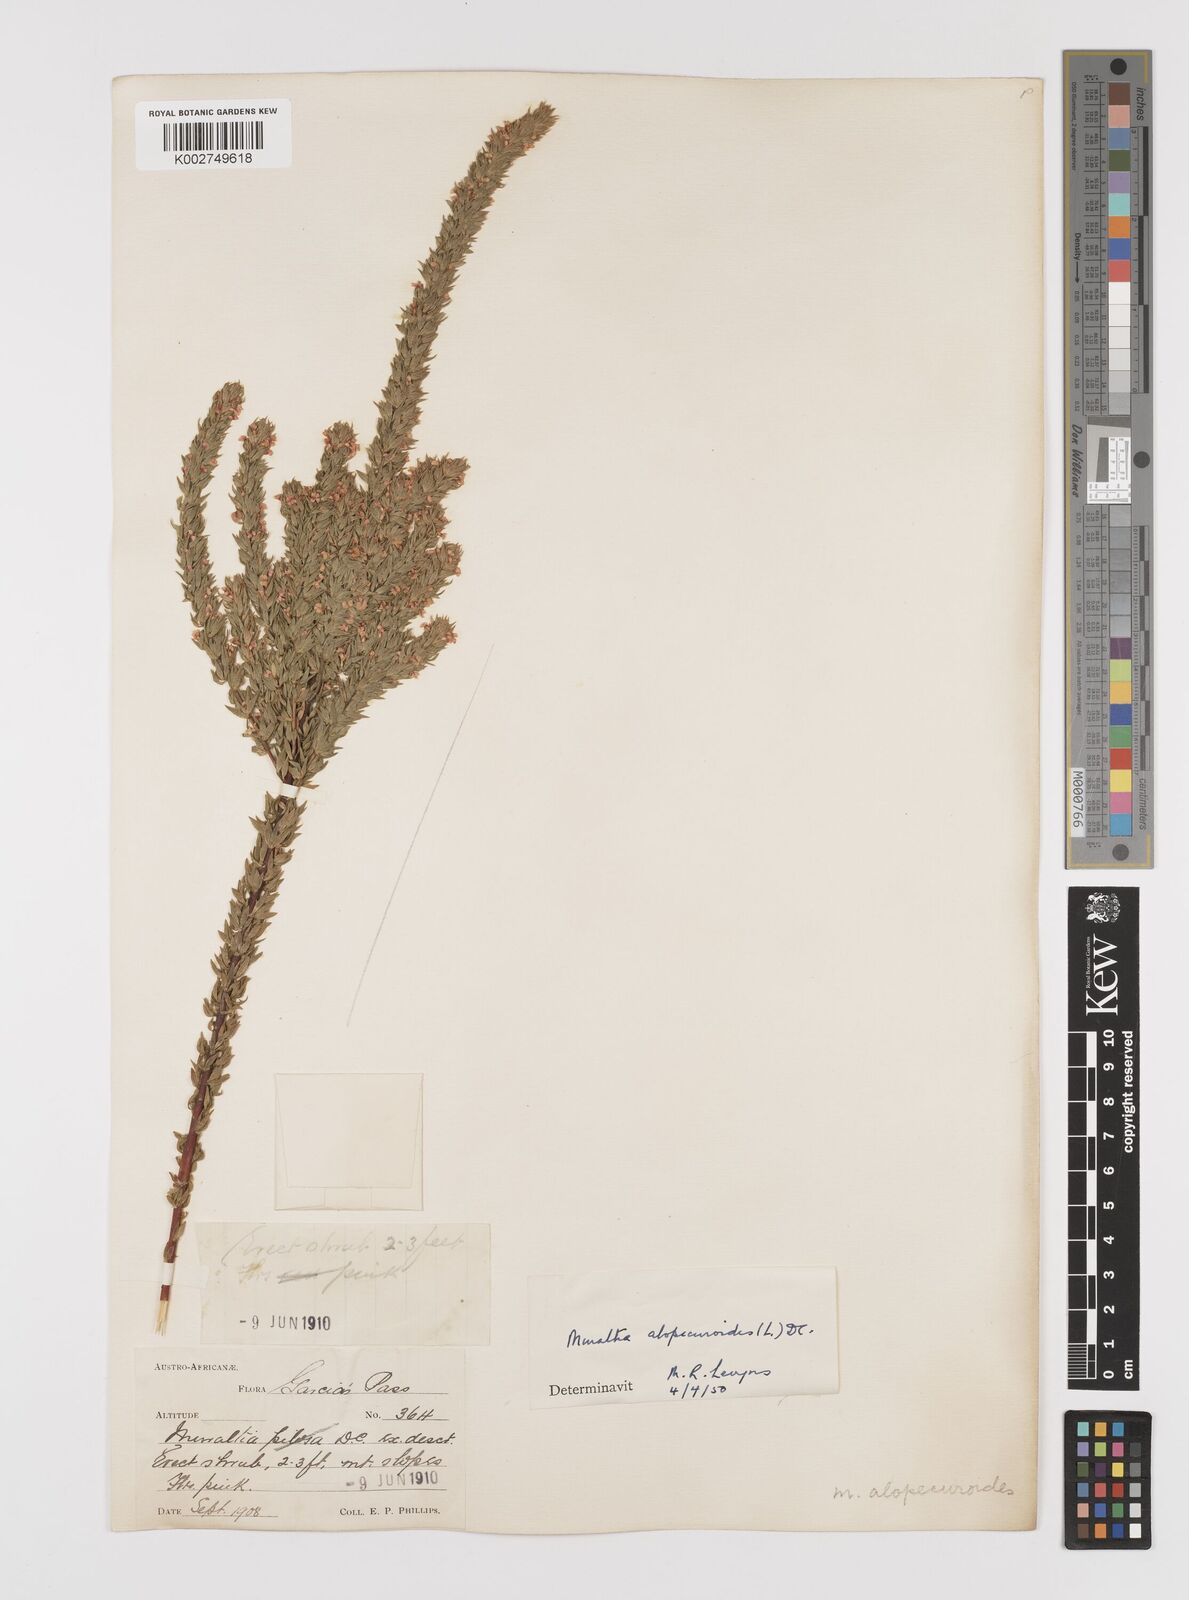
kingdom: Plantae
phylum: Tracheophyta
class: Magnoliopsida
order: Fabales
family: Polygalaceae
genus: Muraltia
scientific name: Muraltia alopecuroides
